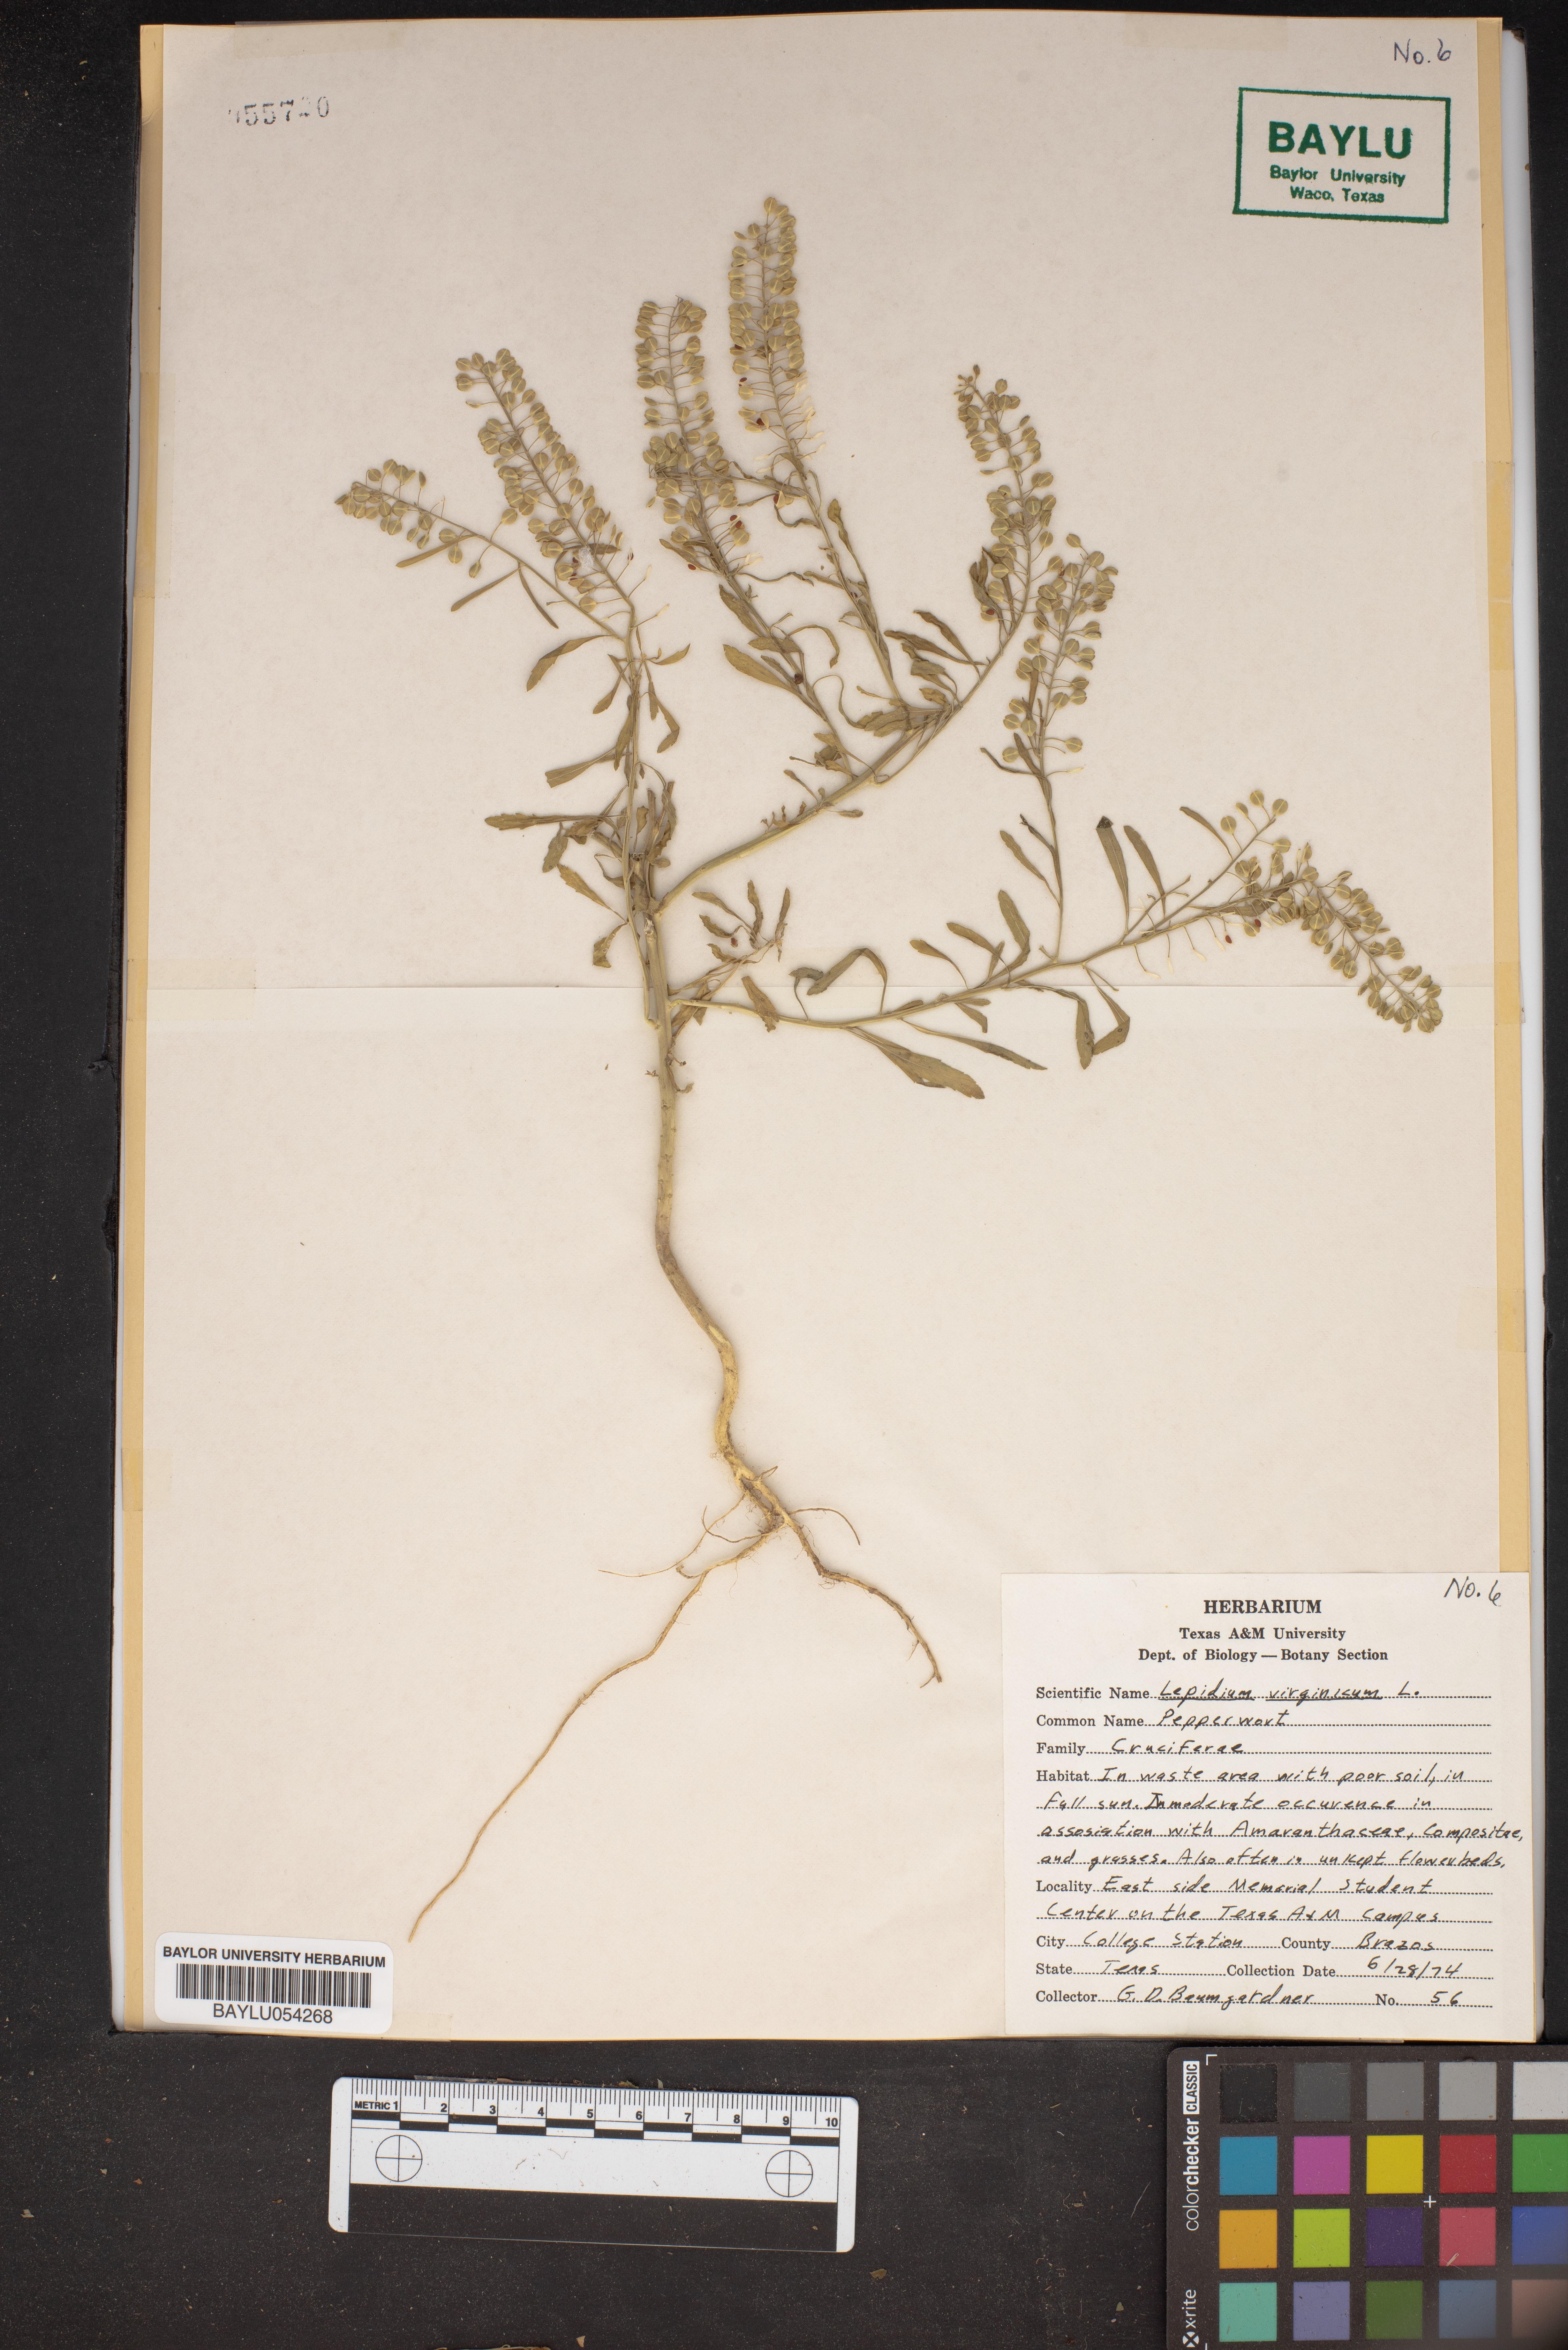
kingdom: Plantae
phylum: Tracheophyta
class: Magnoliopsida
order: Brassicales
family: Brassicaceae
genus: Lepidium
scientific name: Lepidium virginicum
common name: Least pepperwort
